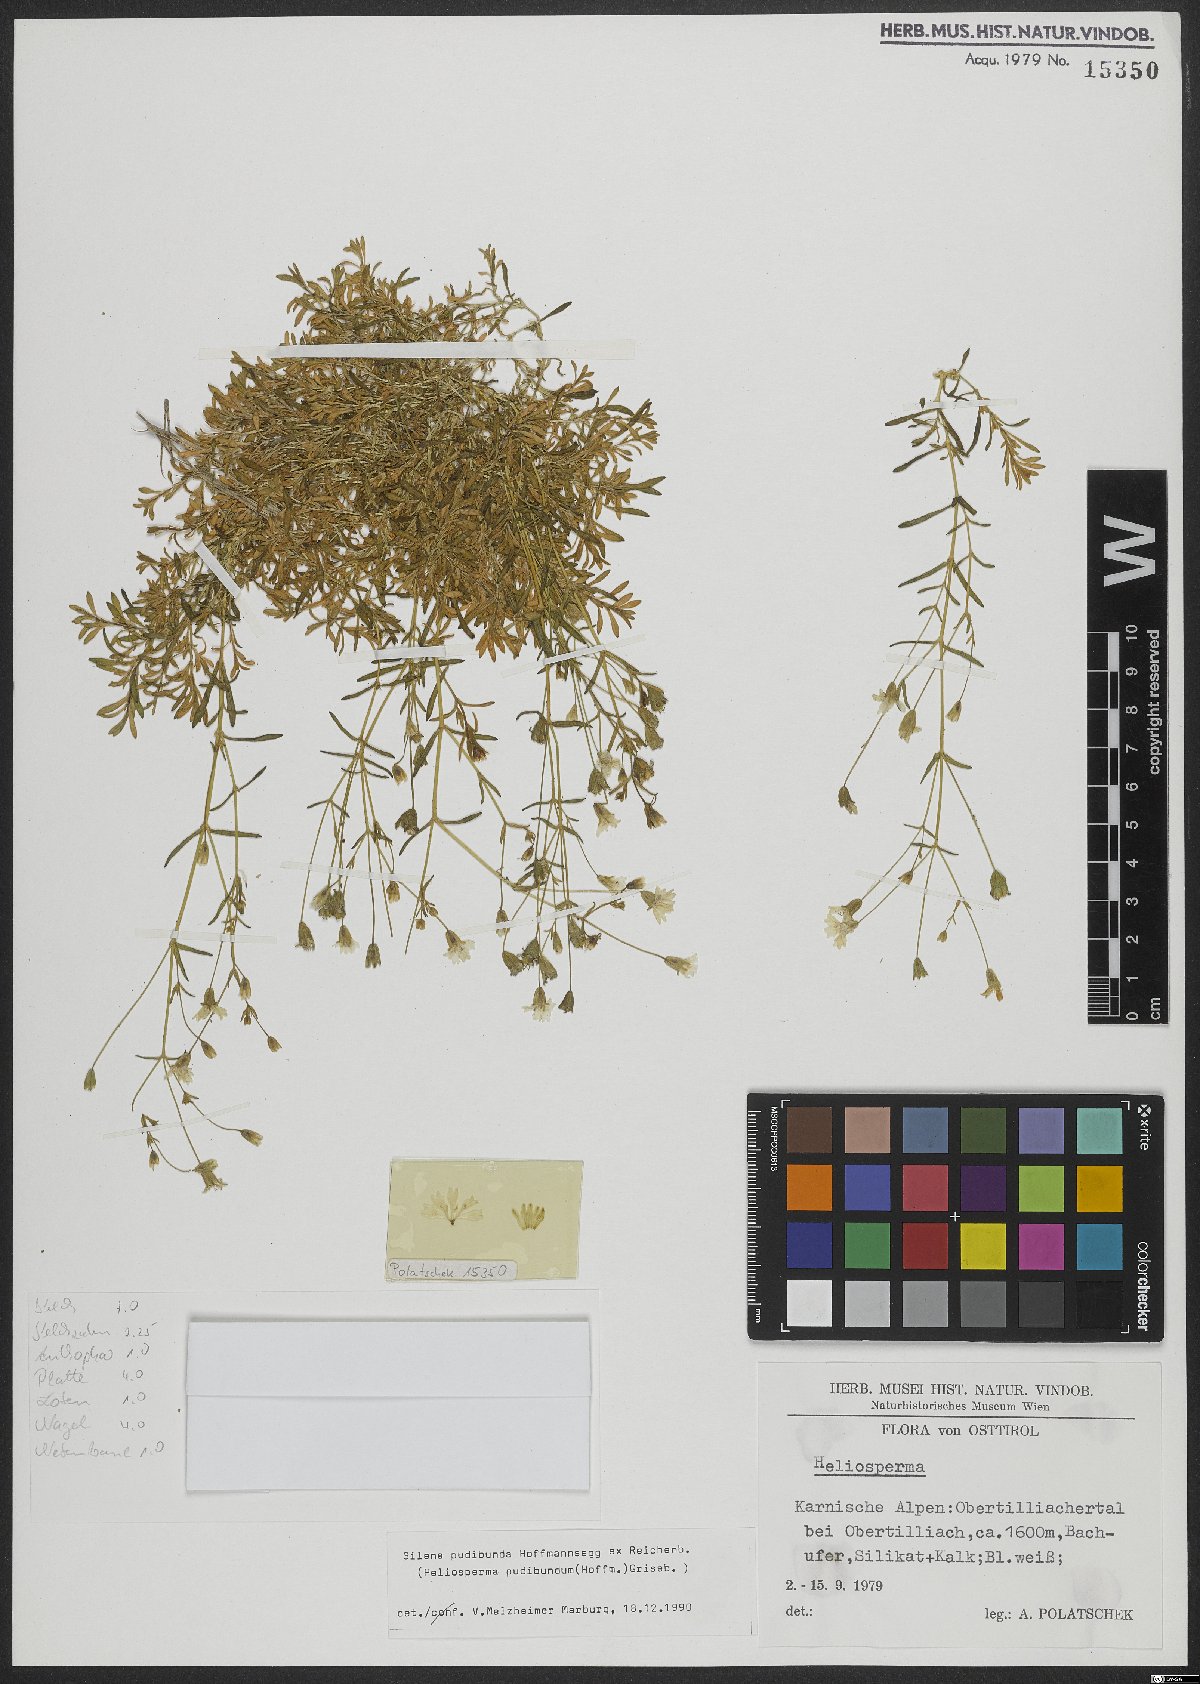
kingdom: Plantae
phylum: Tracheophyta
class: Magnoliopsida
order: Caryophyllales
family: Caryophyllaceae
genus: Heliosperma
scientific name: Heliosperma pudibundum
